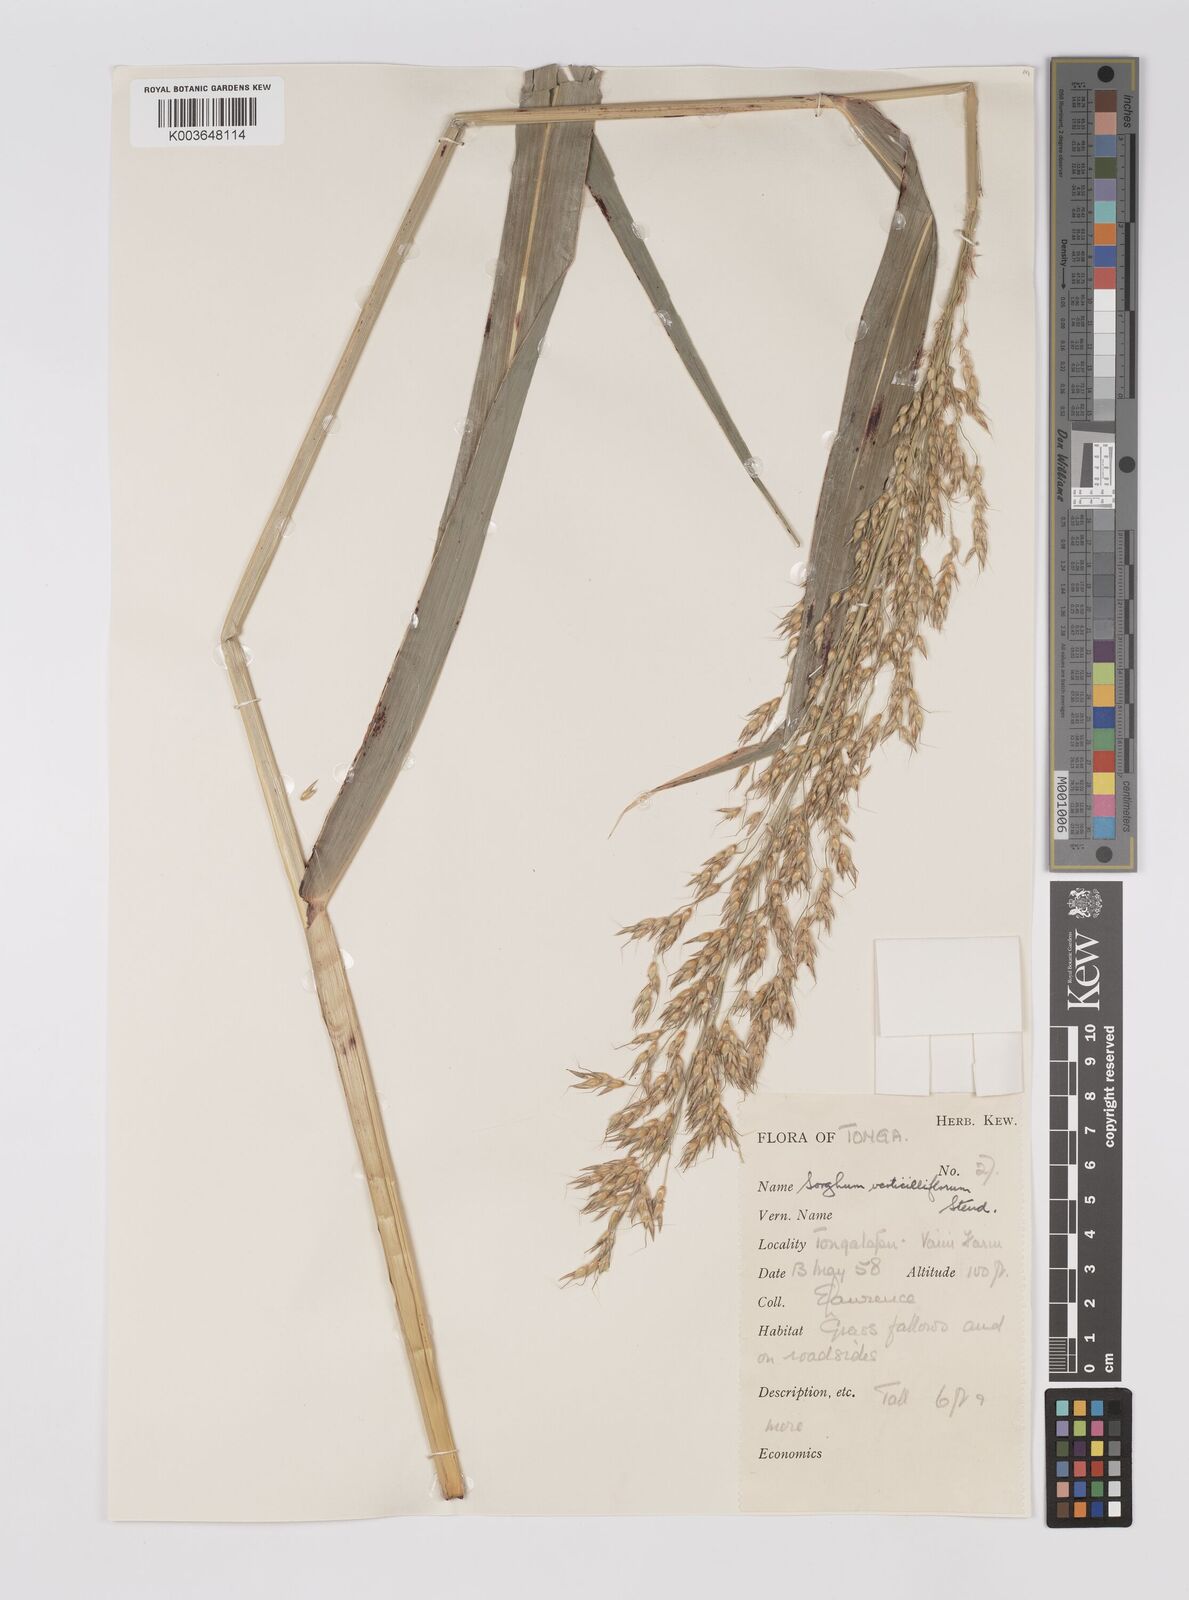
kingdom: Plantae
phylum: Tracheophyta
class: Liliopsida
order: Poales
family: Poaceae
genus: Sorghum
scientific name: Sorghum arundinaceum
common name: Sorghum
